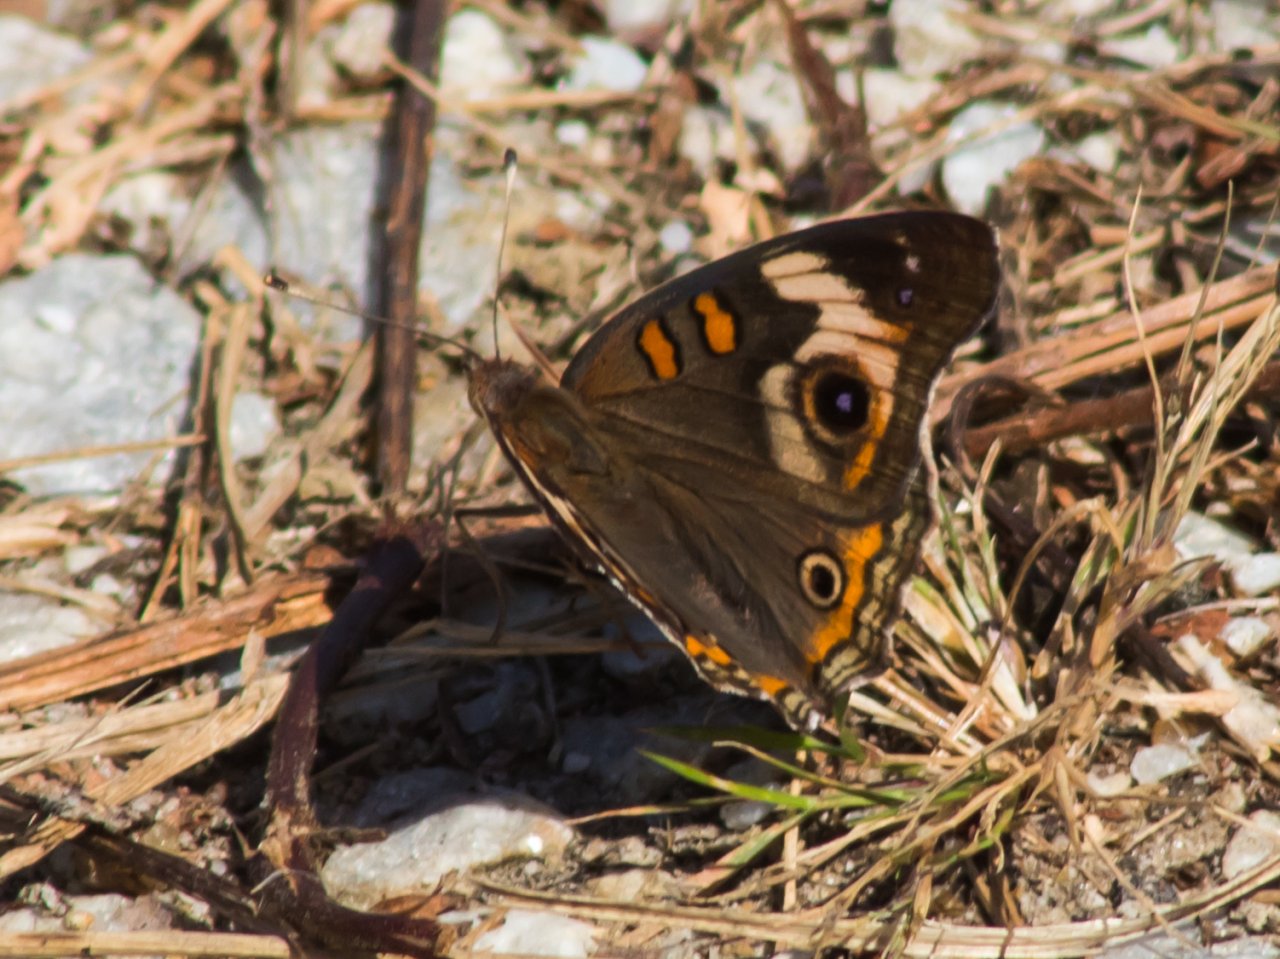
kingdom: Animalia
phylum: Arthropoda
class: Insecta
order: Lepidoptera
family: Nymphalidae
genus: Junonia
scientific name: Junonia coenia
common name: Common Buckeye
